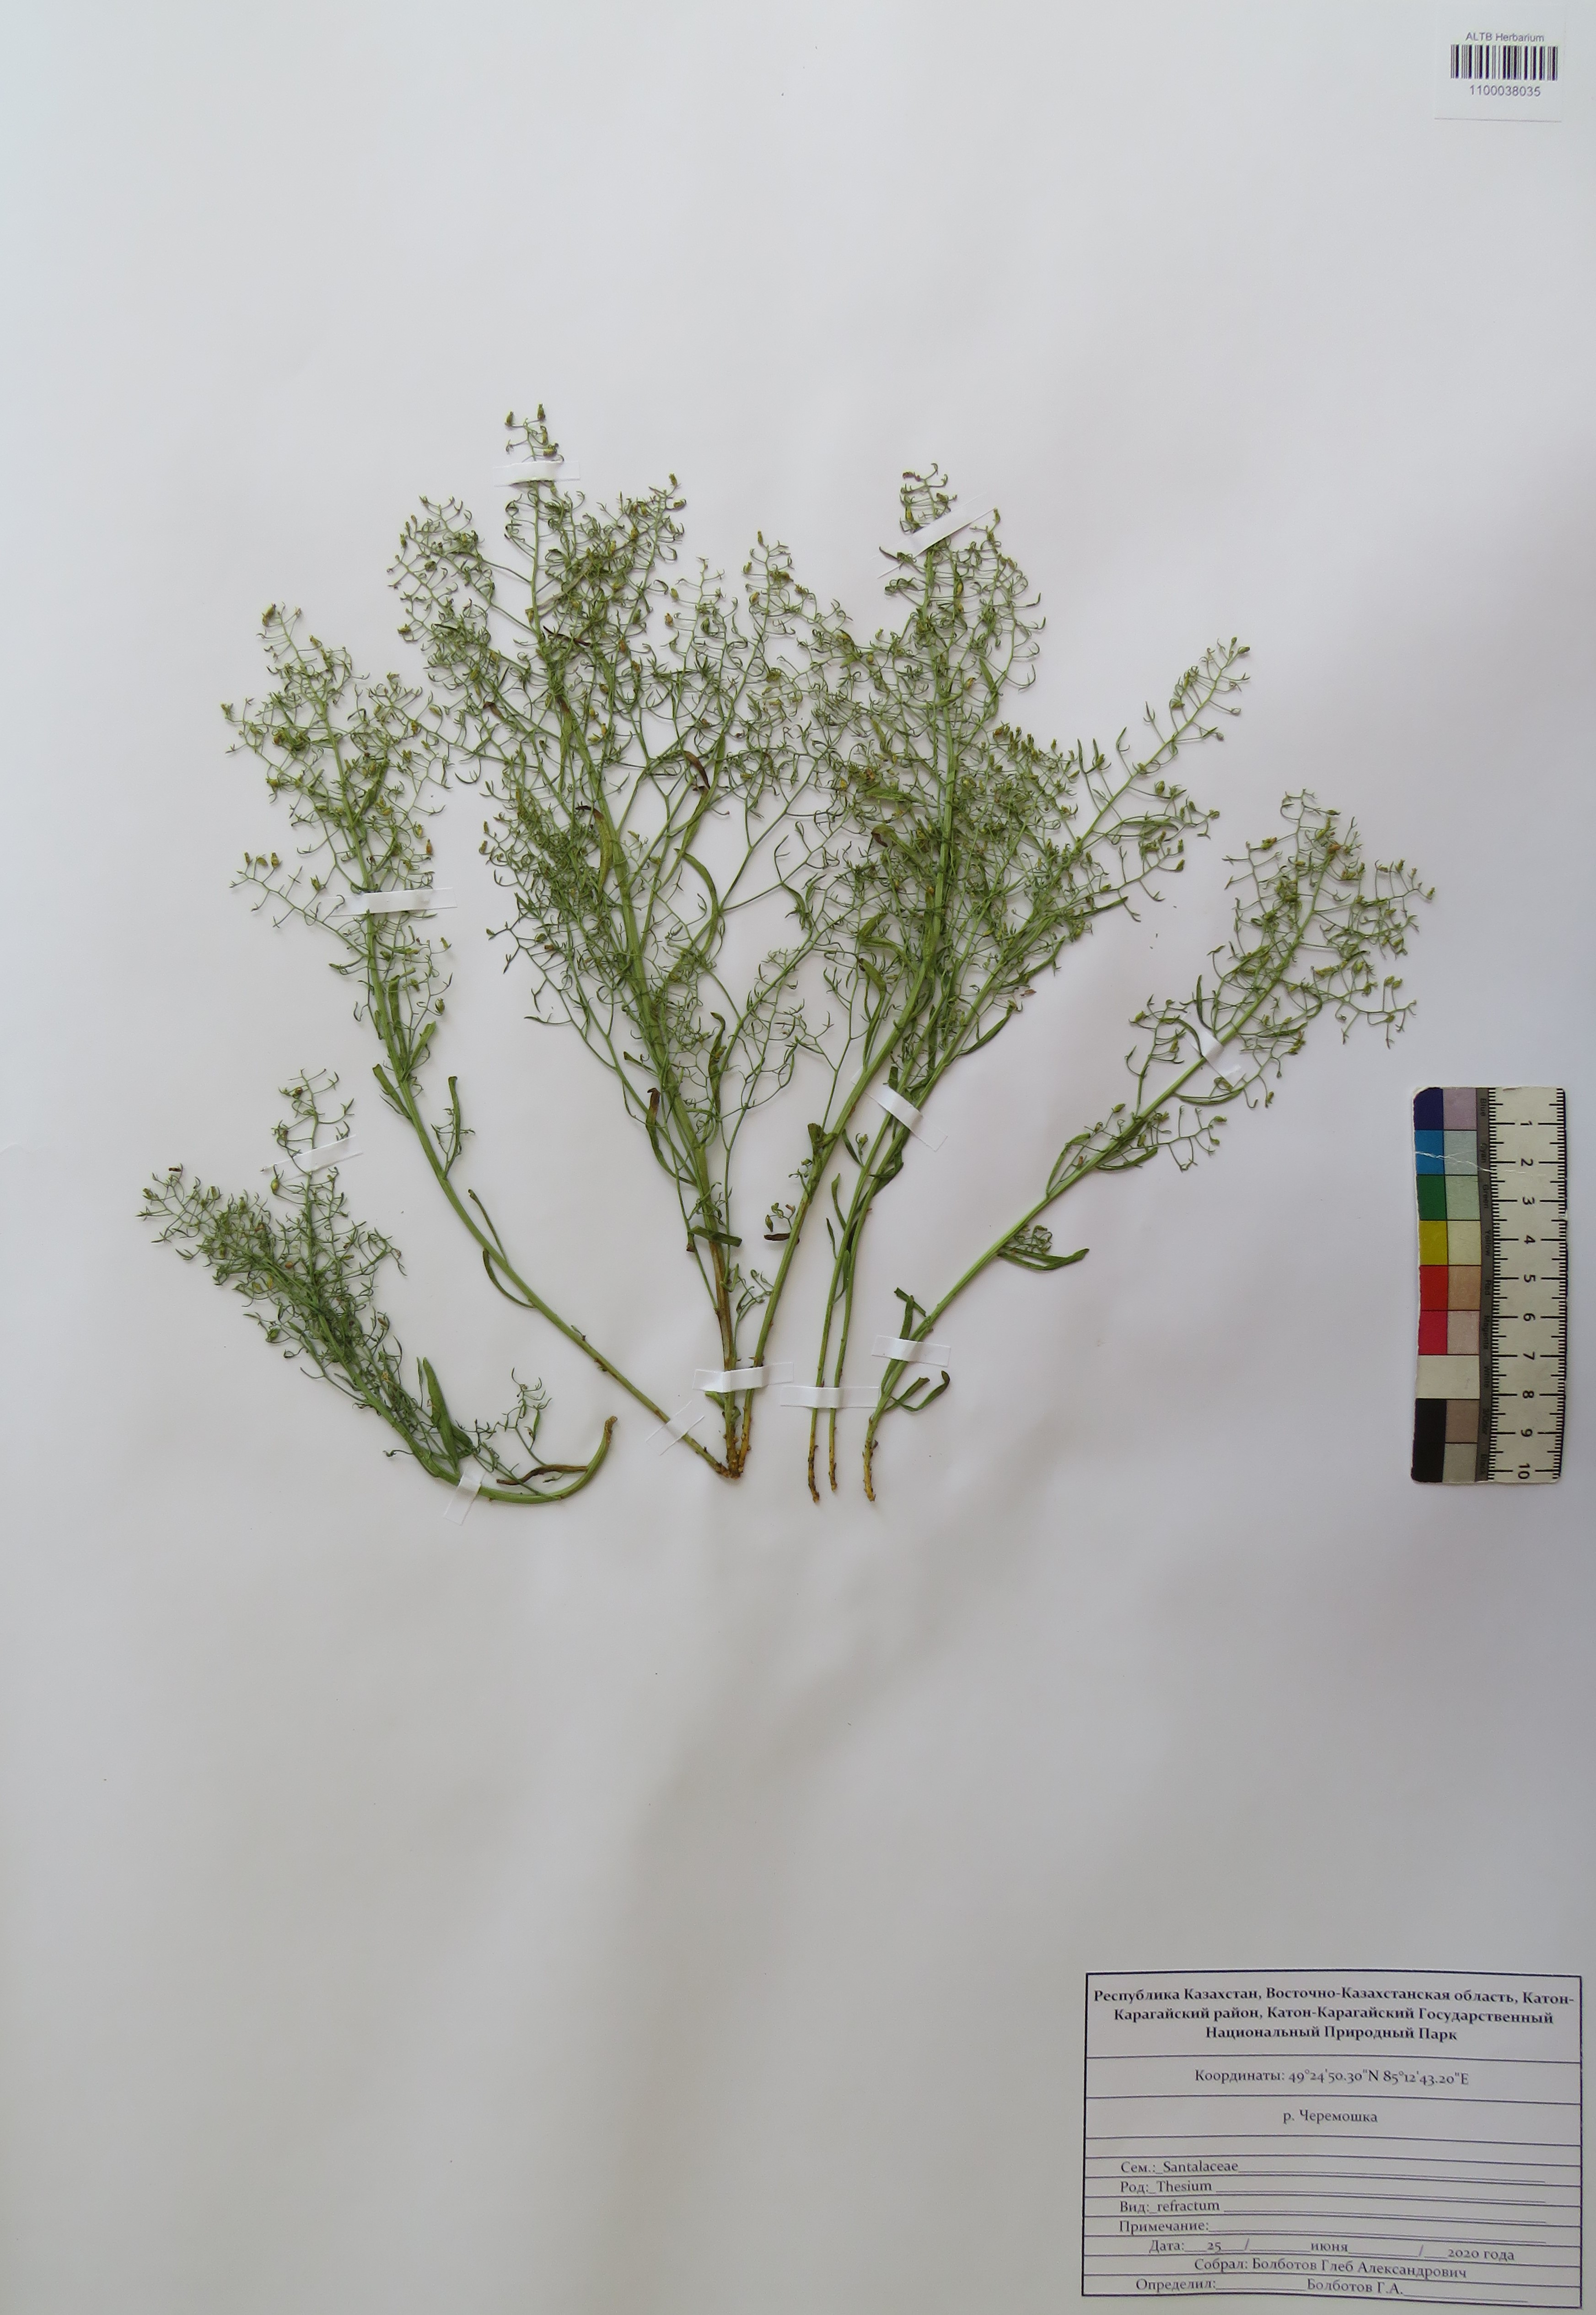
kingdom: Plantae
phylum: Tracheophyta
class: Magnoliopsida
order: Santalales
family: Thesiaceae
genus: Thesium
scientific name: Thesium refractum
